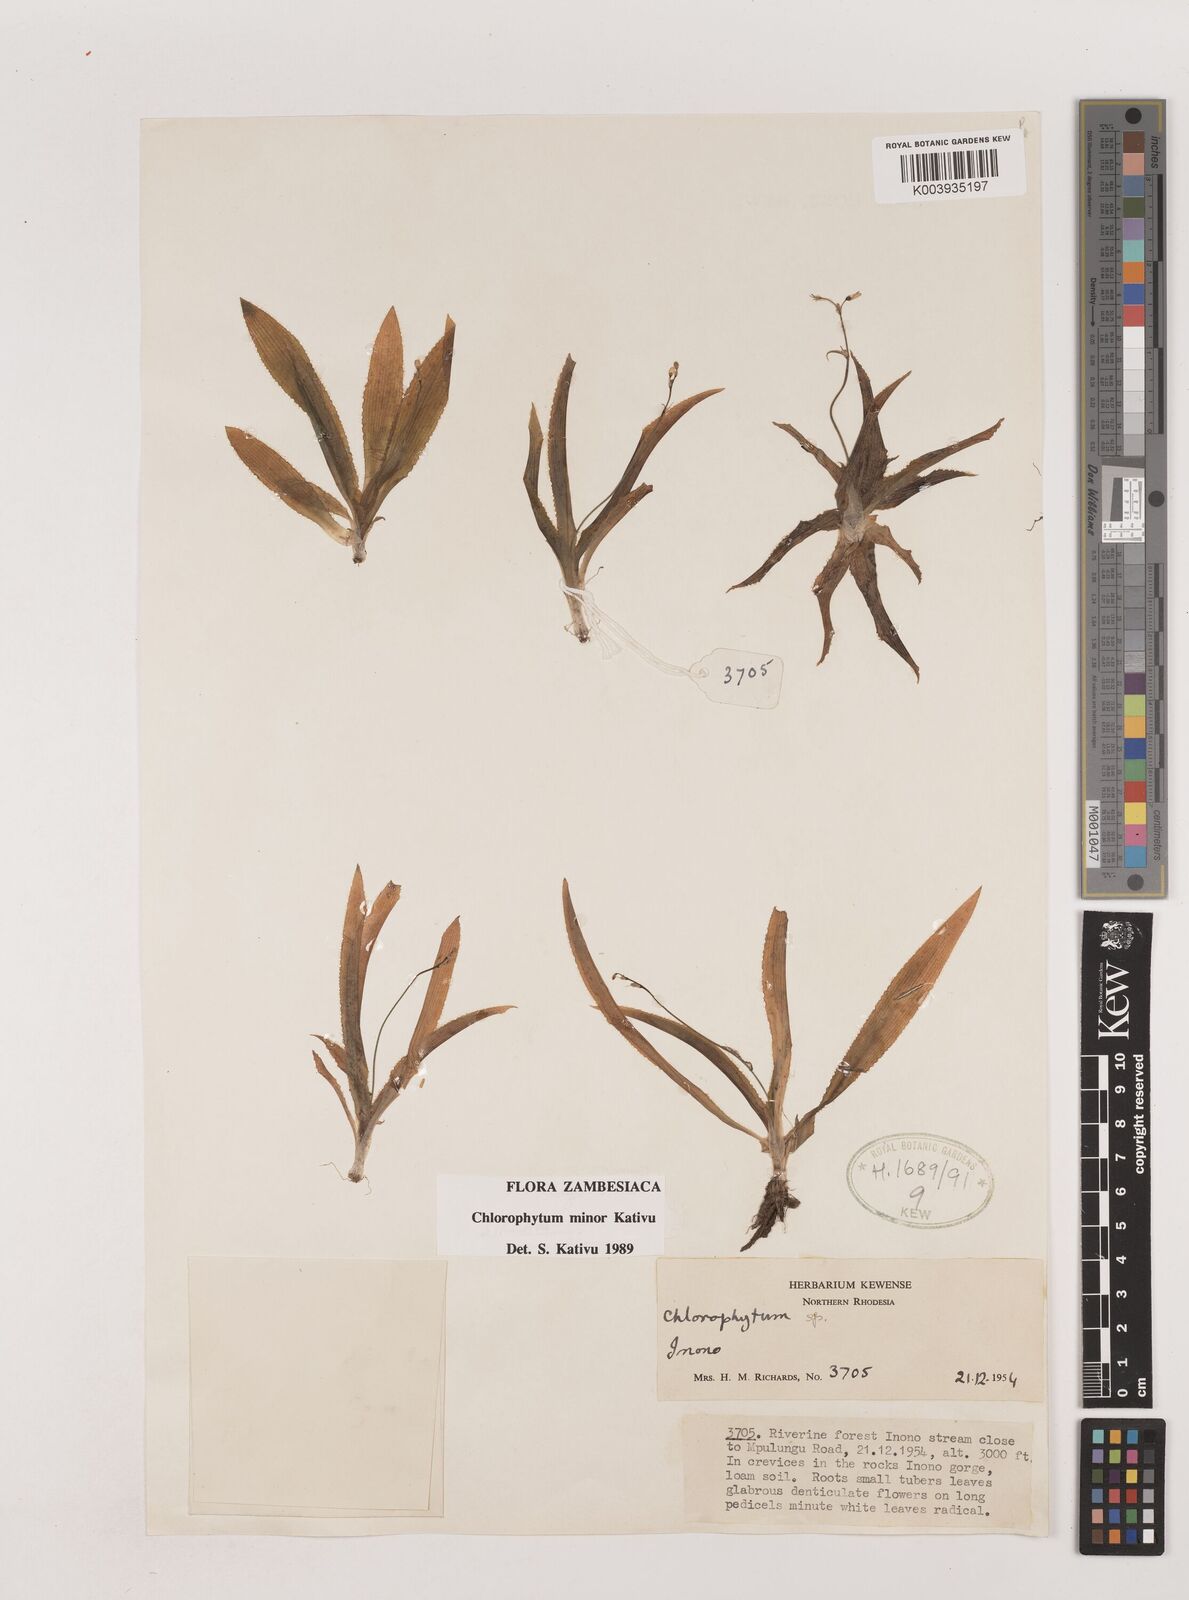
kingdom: Plantae
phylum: Tracheophyta
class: Liliopsida
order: Asparagales
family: Asparagaceae
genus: Chlorophytum
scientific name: Chlorophytum minor
